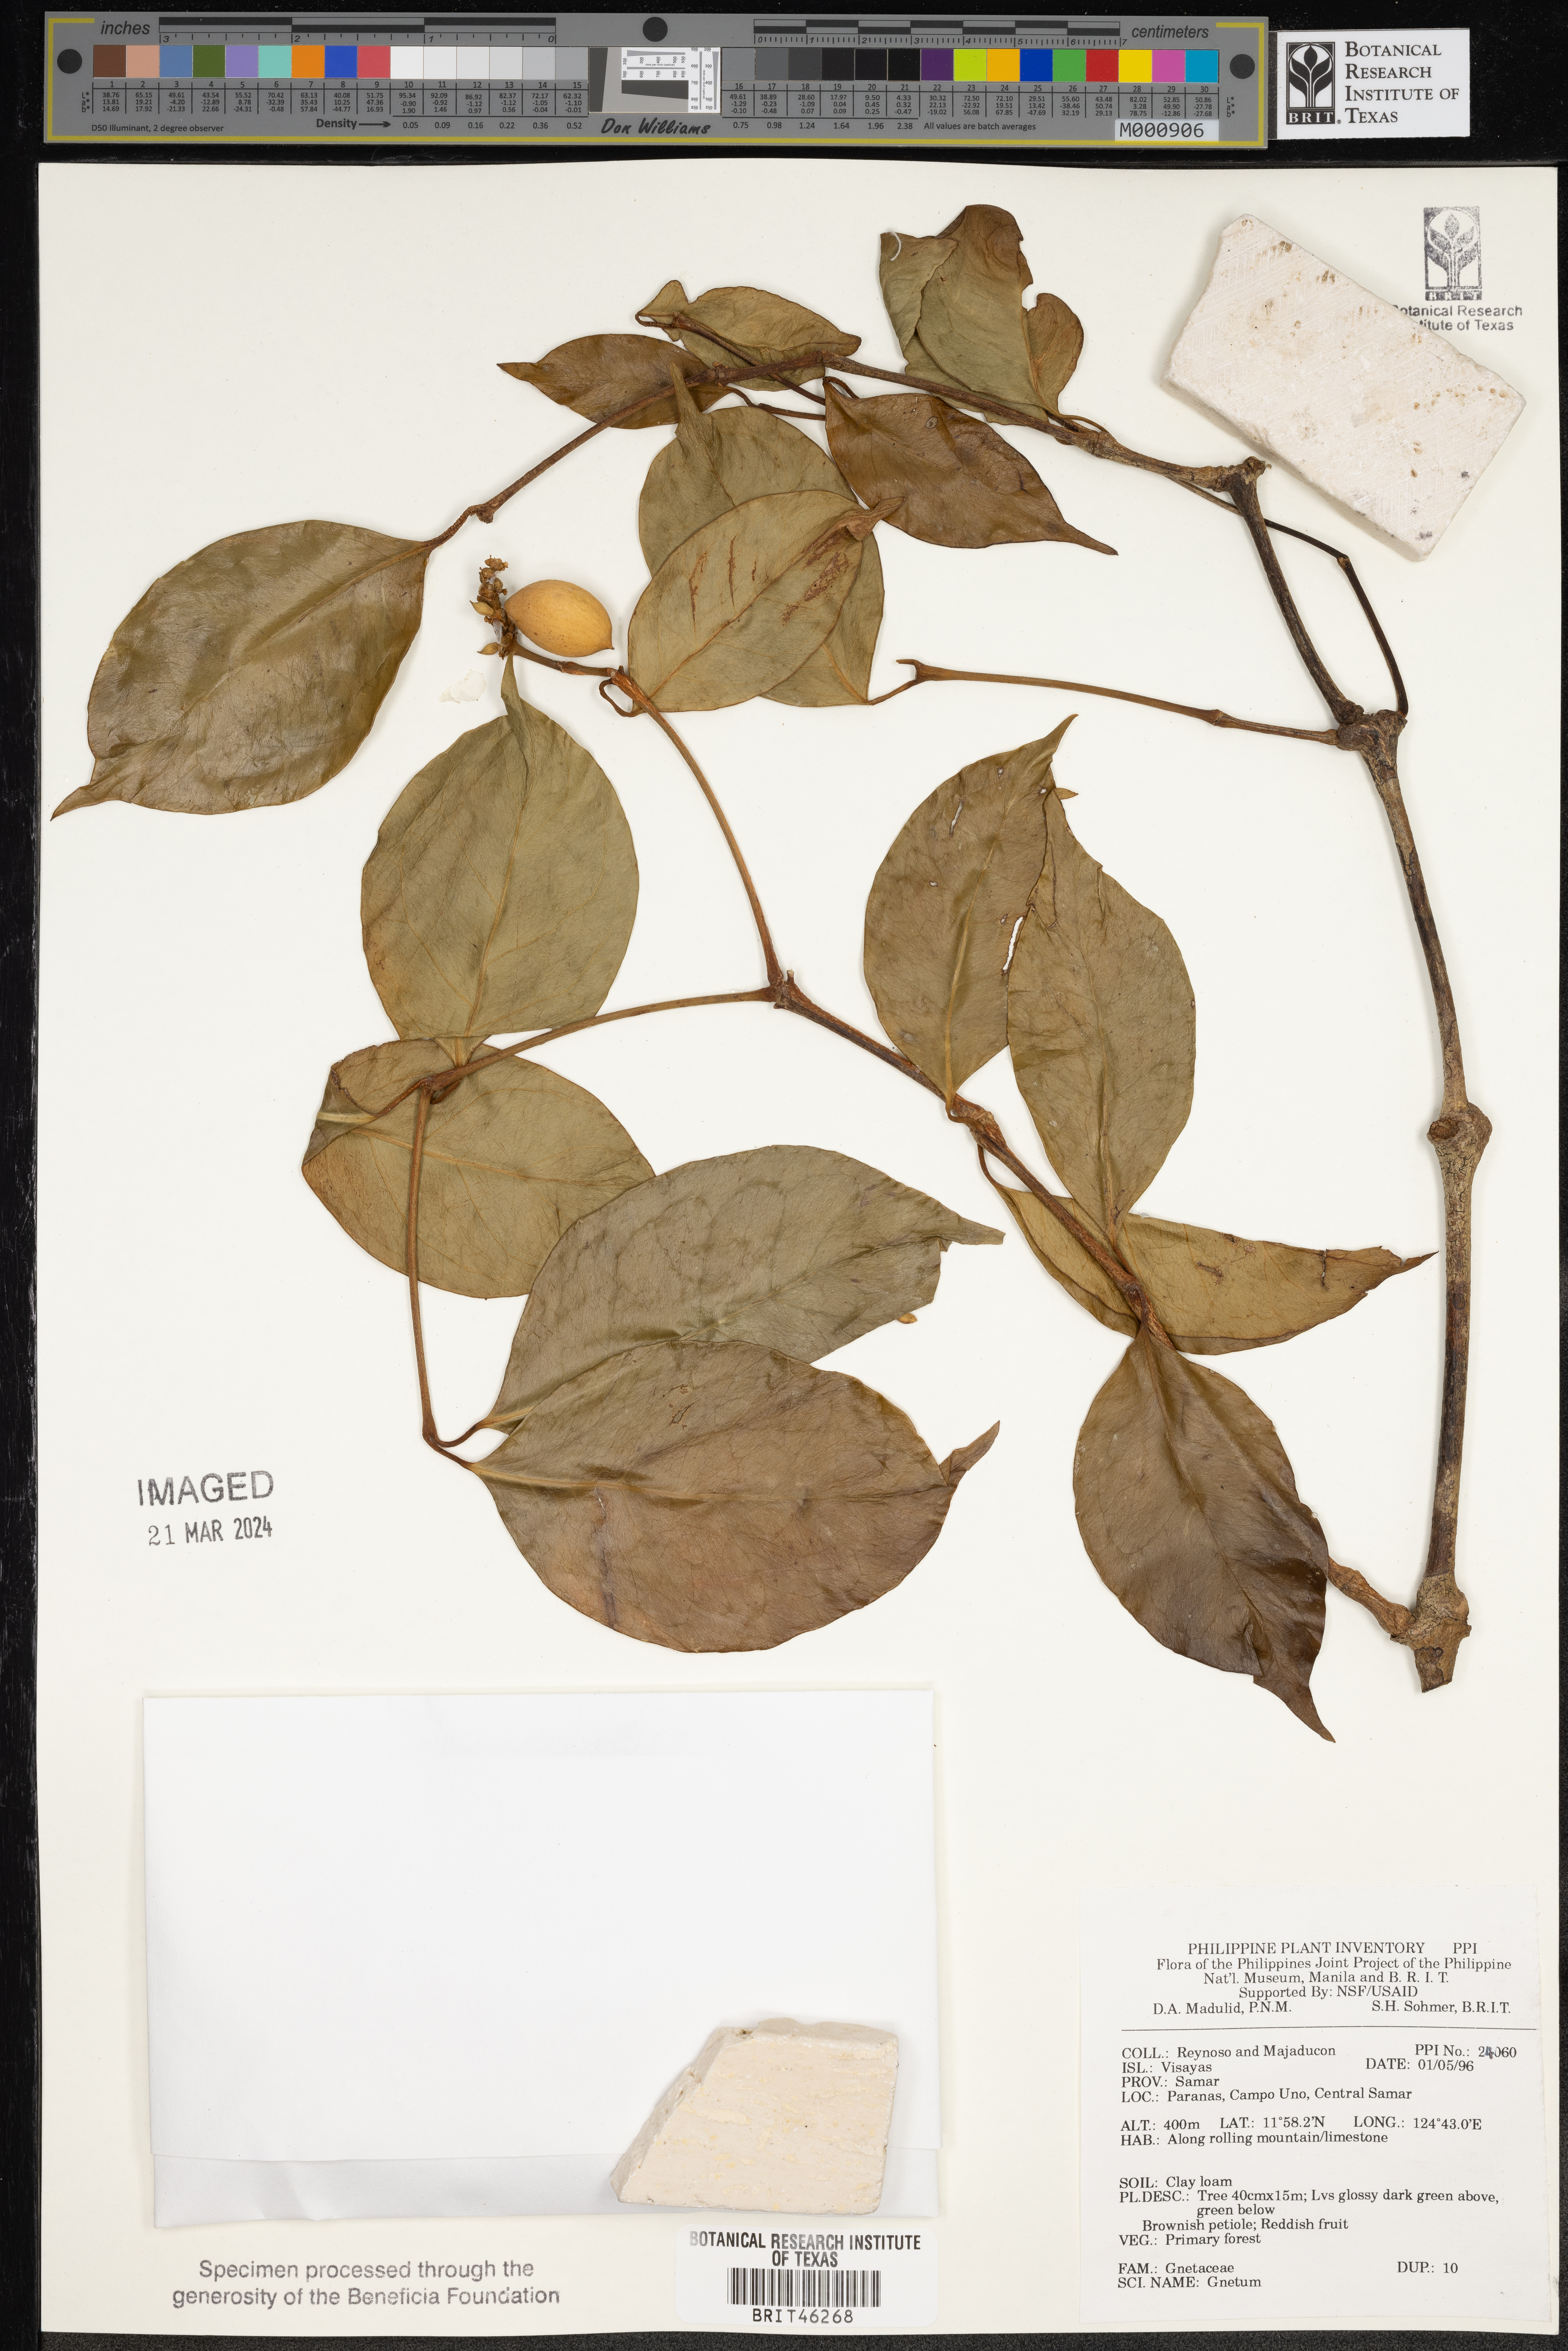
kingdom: Plantae
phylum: Tracheophyta
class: Gnetopsida
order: Gnetales
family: Gnetaceae
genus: Gnetum
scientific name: Gnetum
